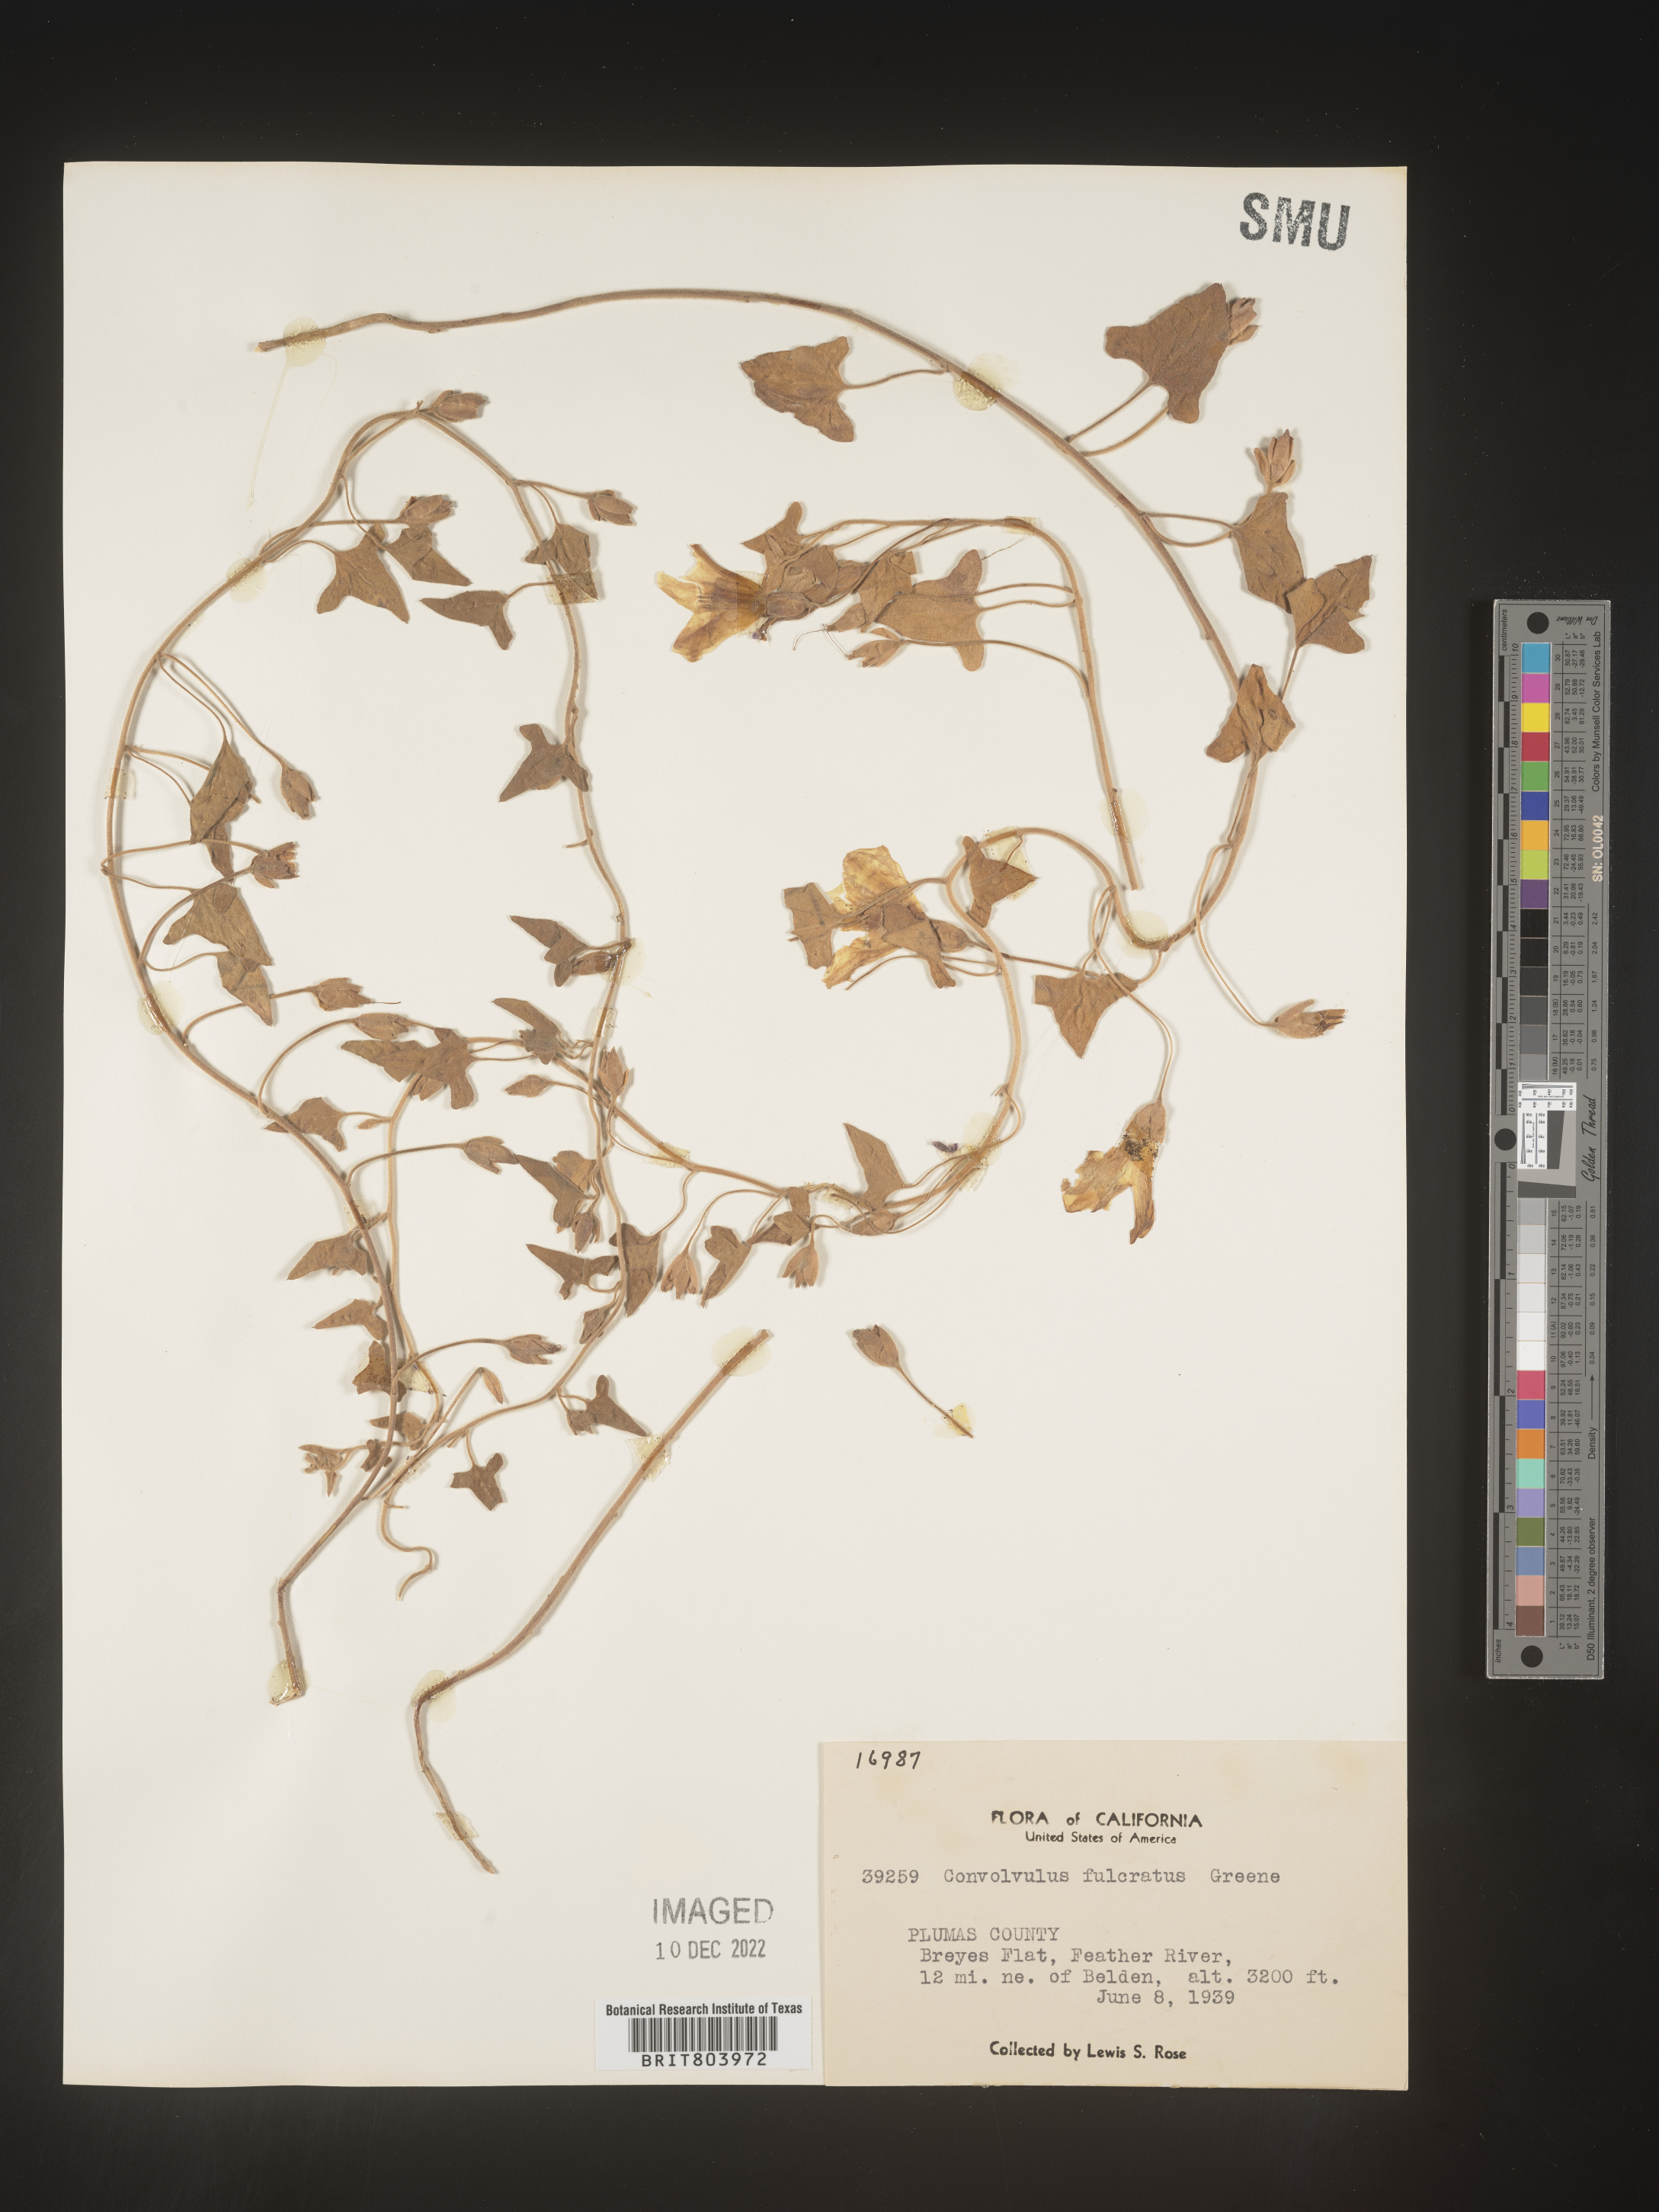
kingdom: Plantae
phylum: Tracheophyta
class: Magnoliopsida
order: Solanales
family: Convolvulaceae
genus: Calystegia
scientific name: Calystegia
